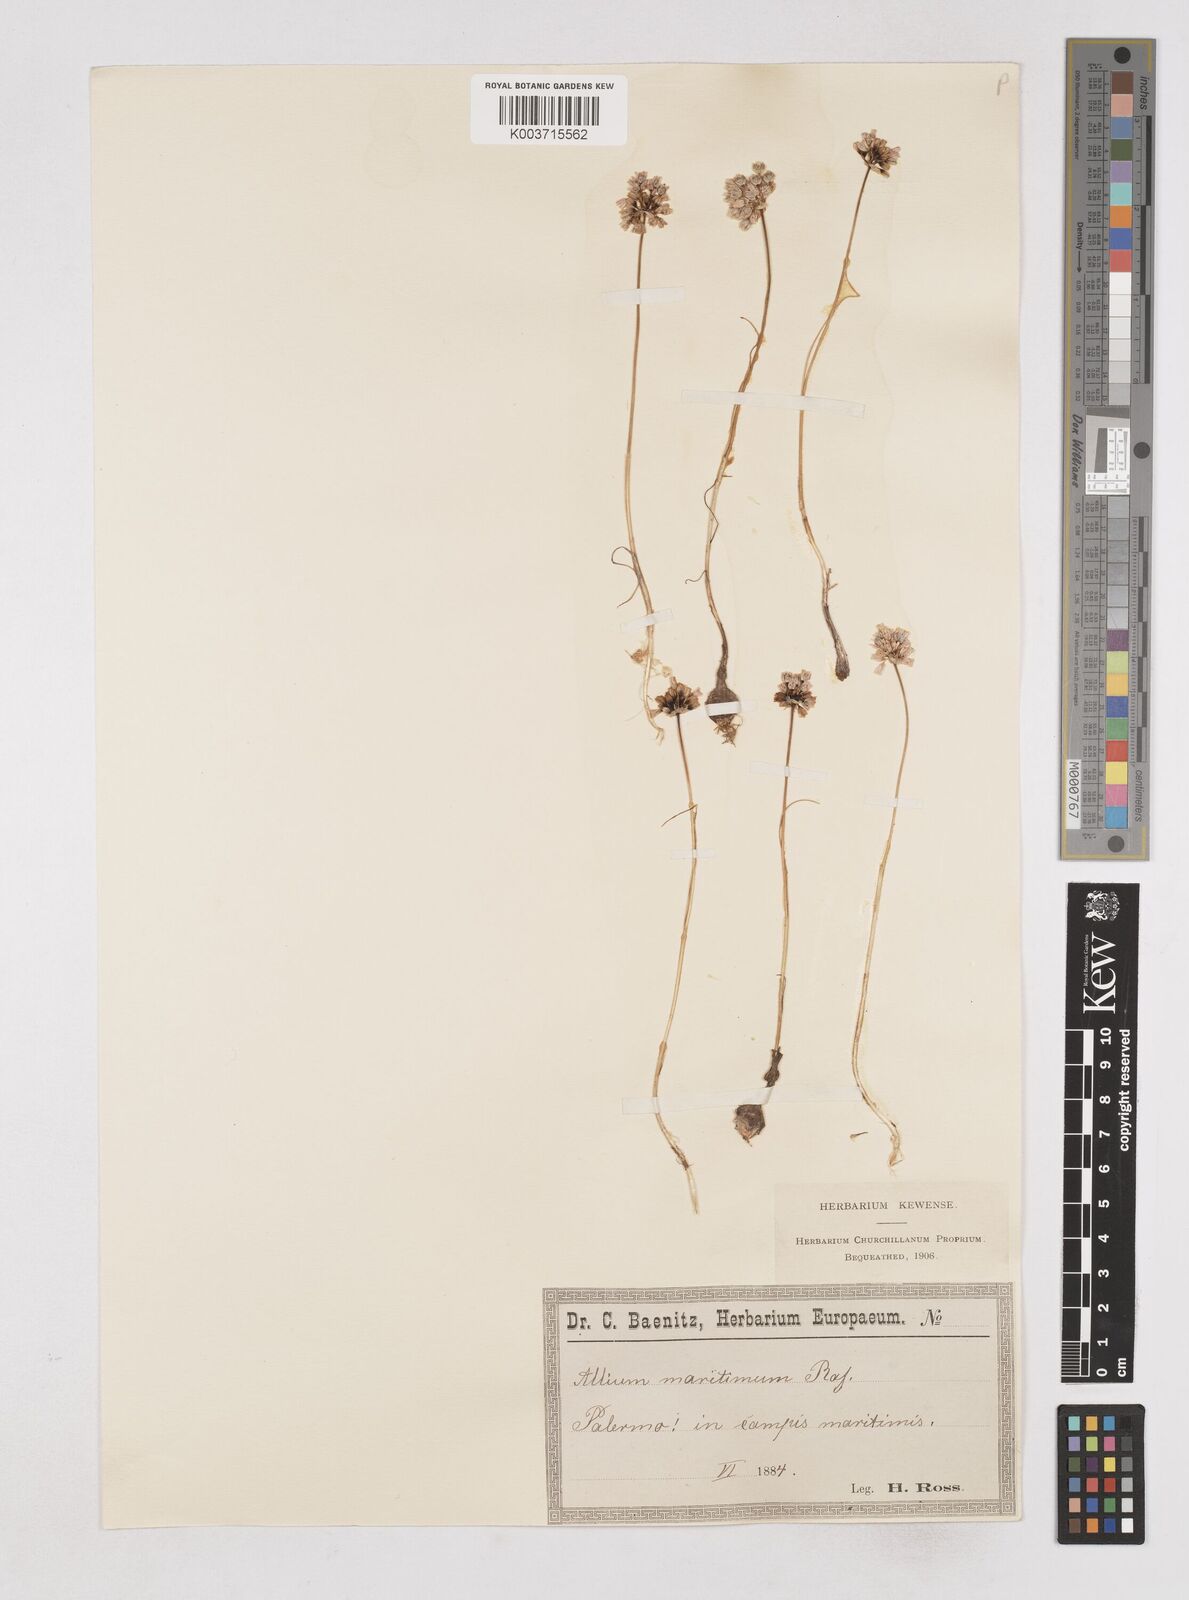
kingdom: Plantae
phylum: Tracheophyta
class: Liliopsida
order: Asparagales
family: Amaryllidaceae
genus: Allium
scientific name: Allium
